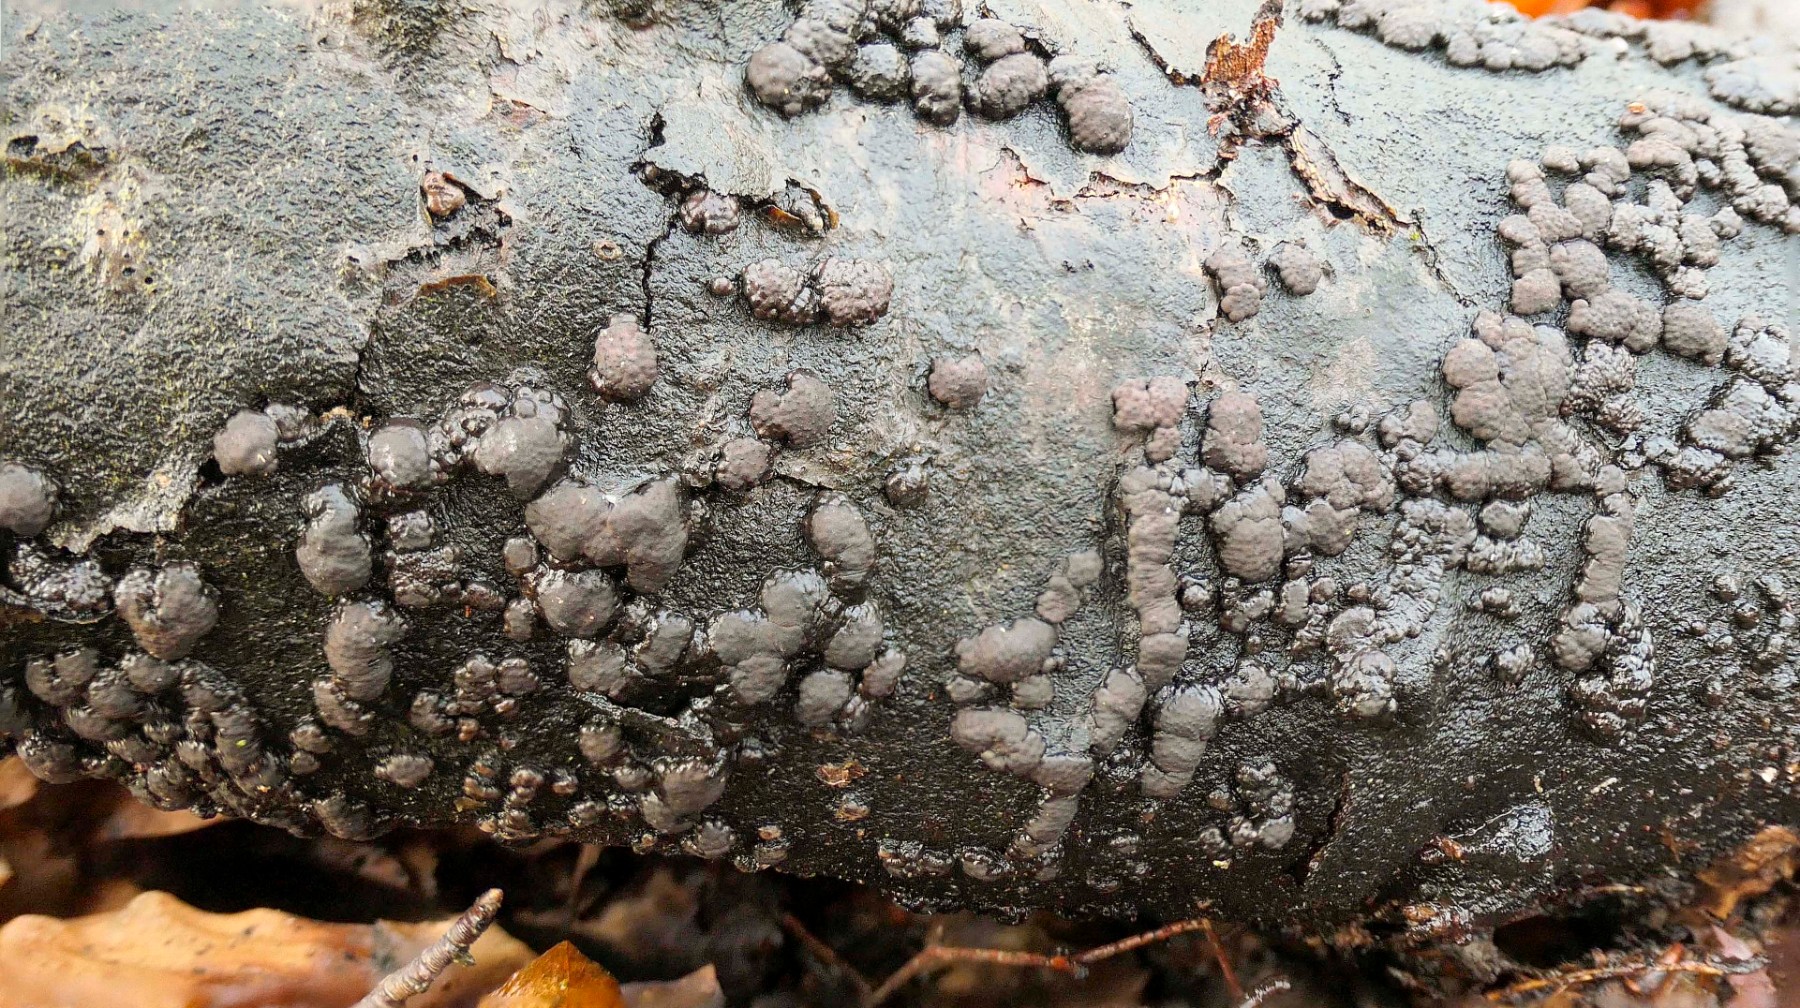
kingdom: Fungi
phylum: Ascomycota
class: Sordariomycetes
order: Xylariales
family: Hypoxylaceae
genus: Jackrogersella
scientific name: Jackrogersella cohaerens
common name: sammenflydende kulbær
